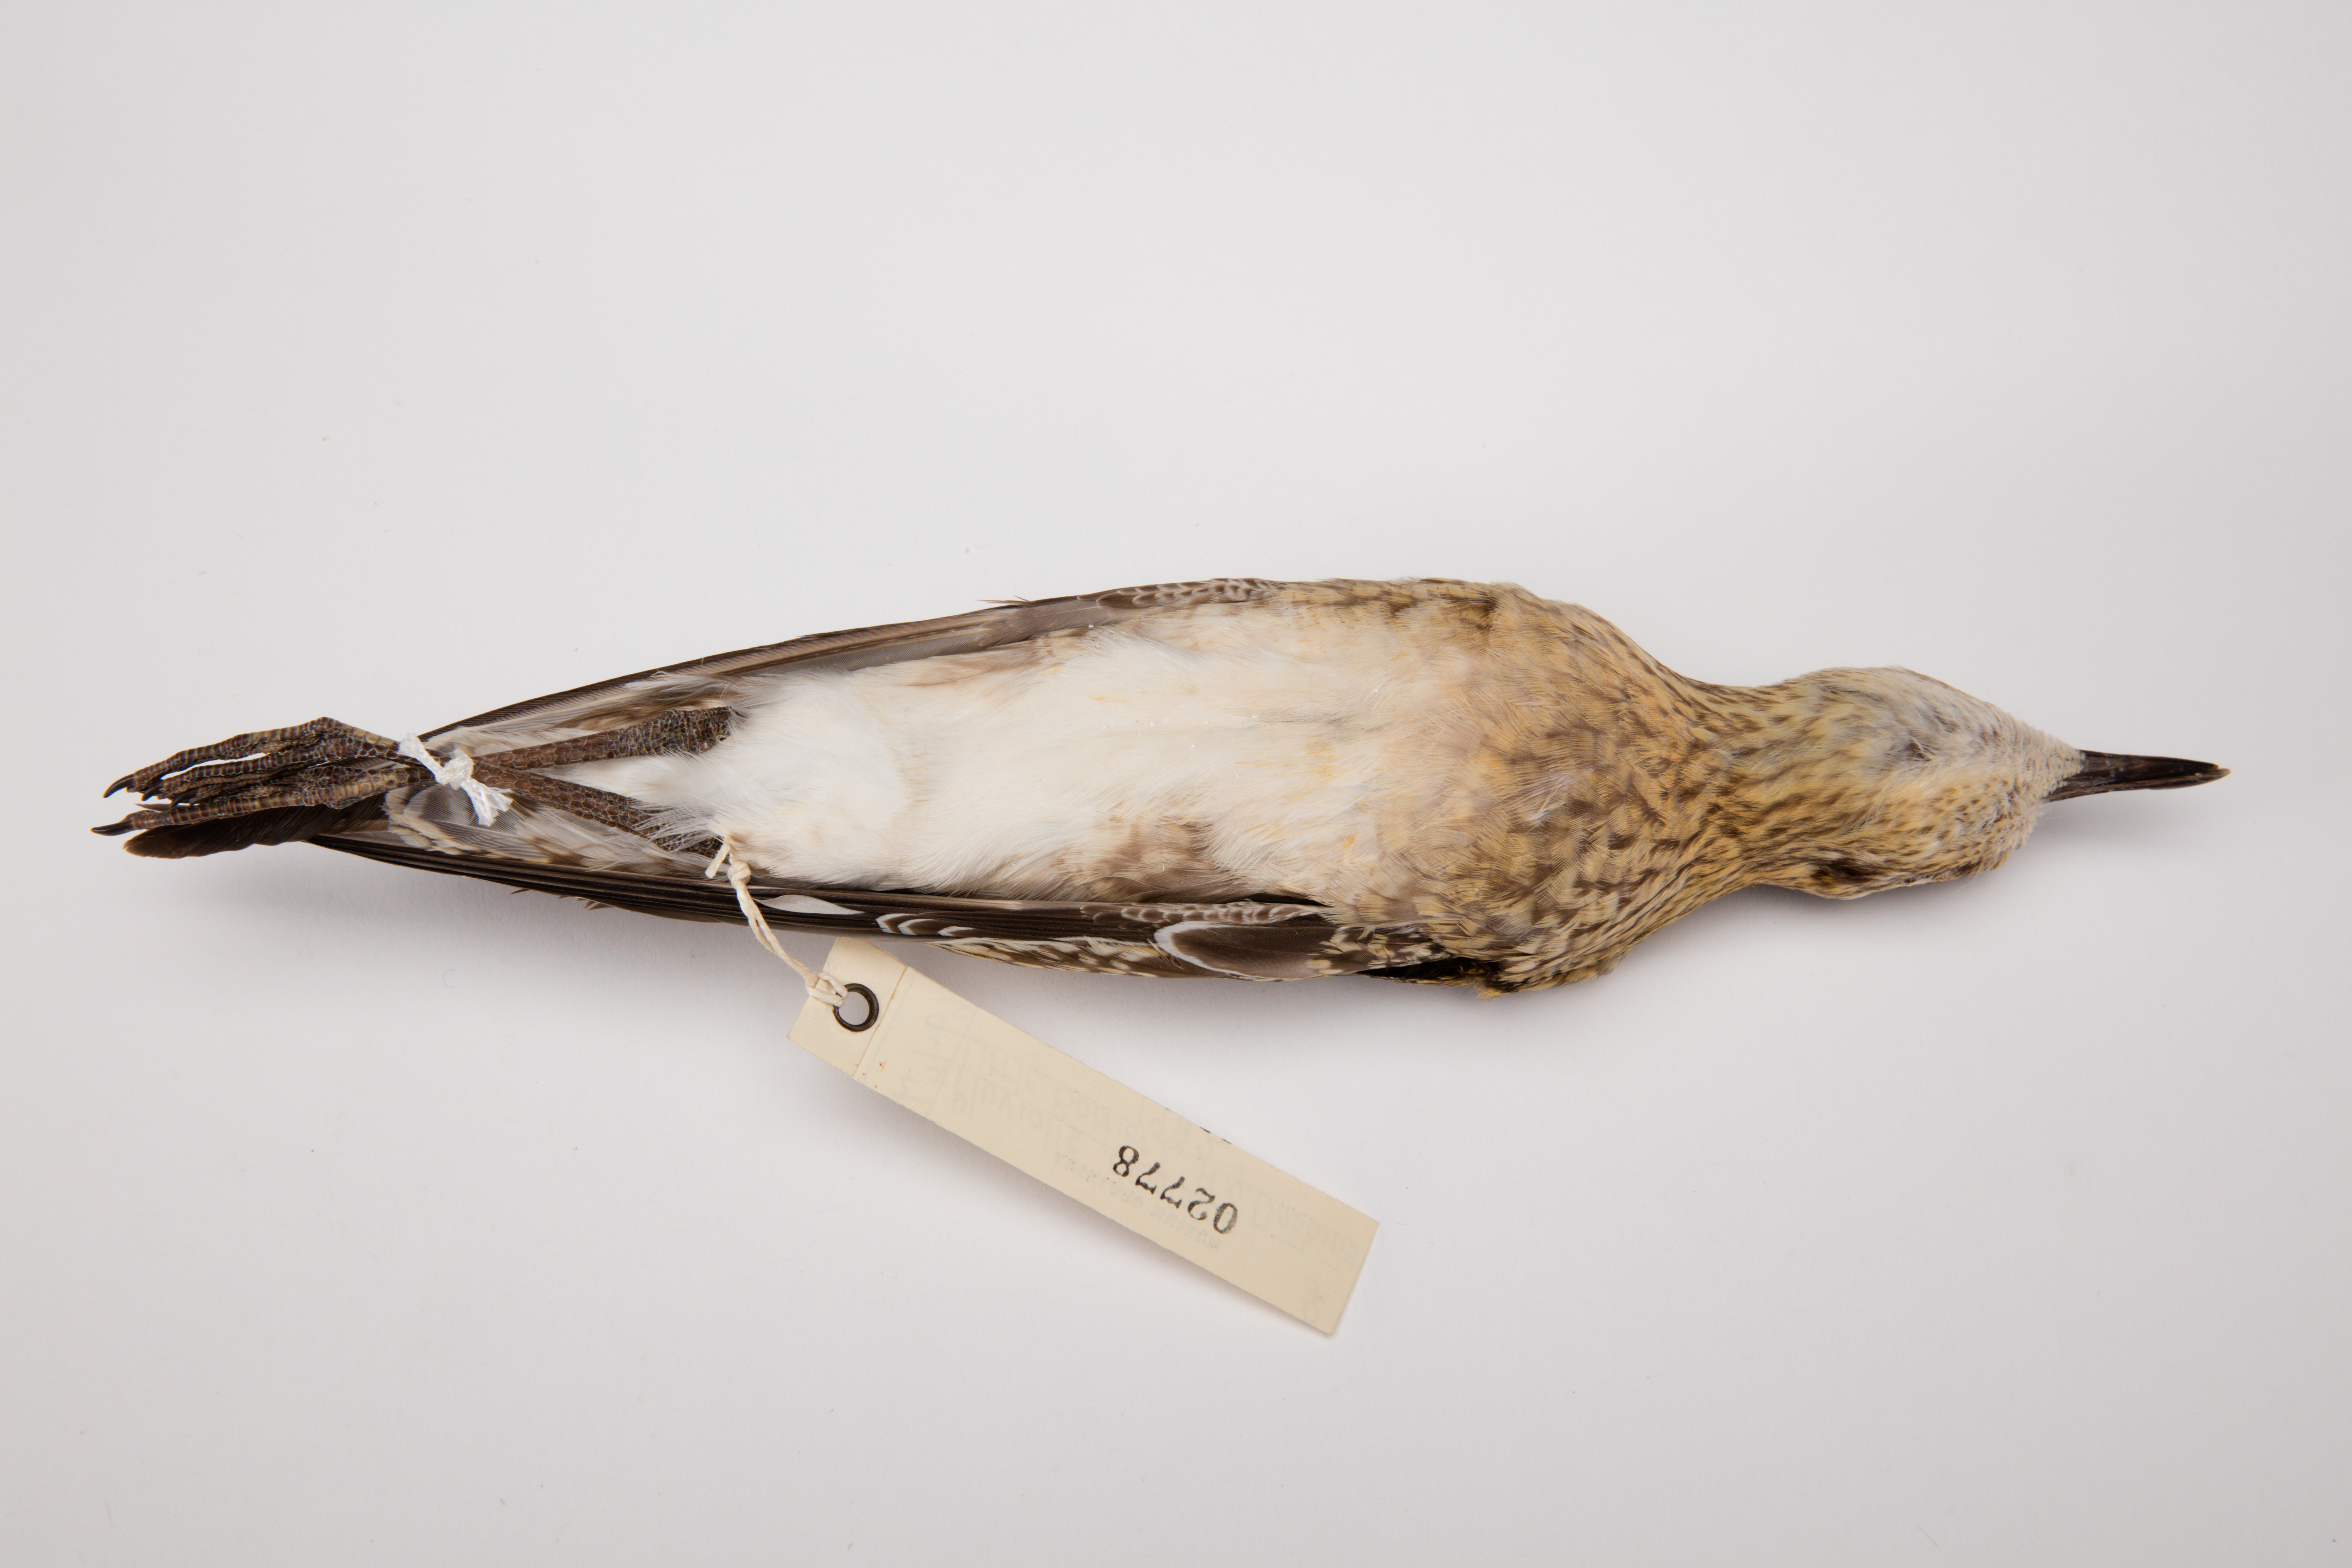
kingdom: Animalia
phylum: Chordata
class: Aves
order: Charadriiformes
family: Charadriidae
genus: Pluvialis
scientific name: Pluvialis fulva
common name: Pacific golden plover
